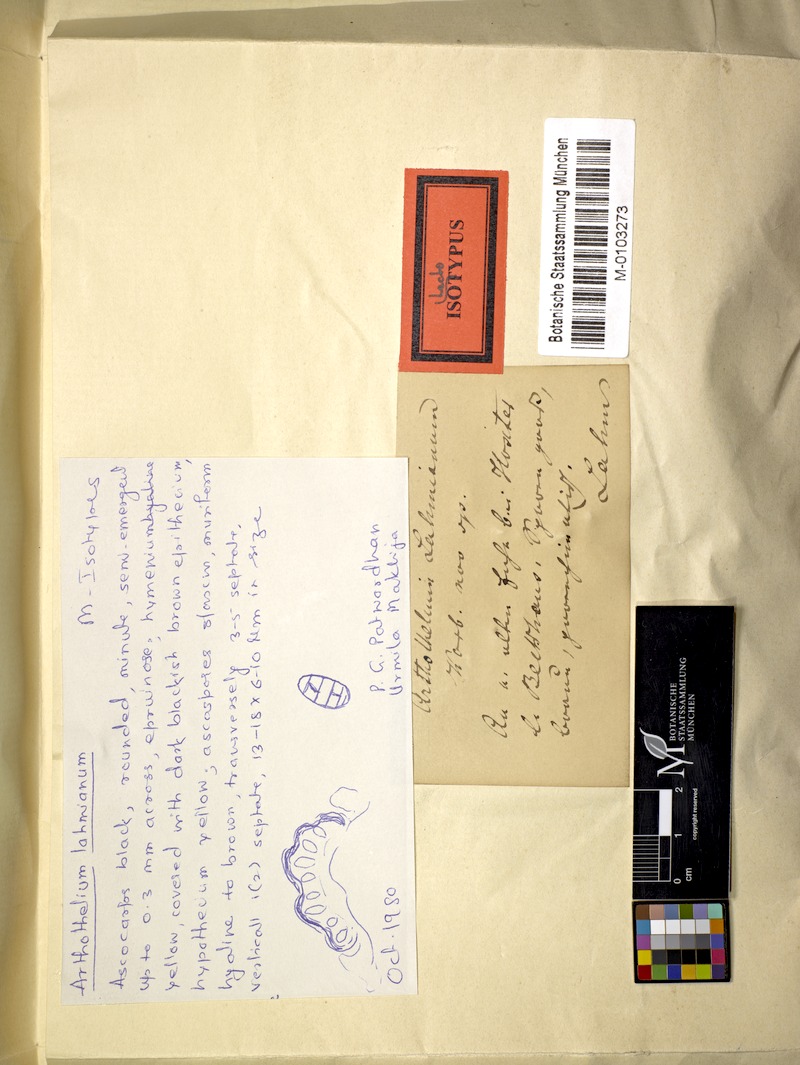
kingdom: Fungi
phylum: Ascomycota
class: Arthoniomycetes
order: Arthoniales
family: Arthoniaceae
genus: Arthothelium
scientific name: Arthothelium lahmianum
